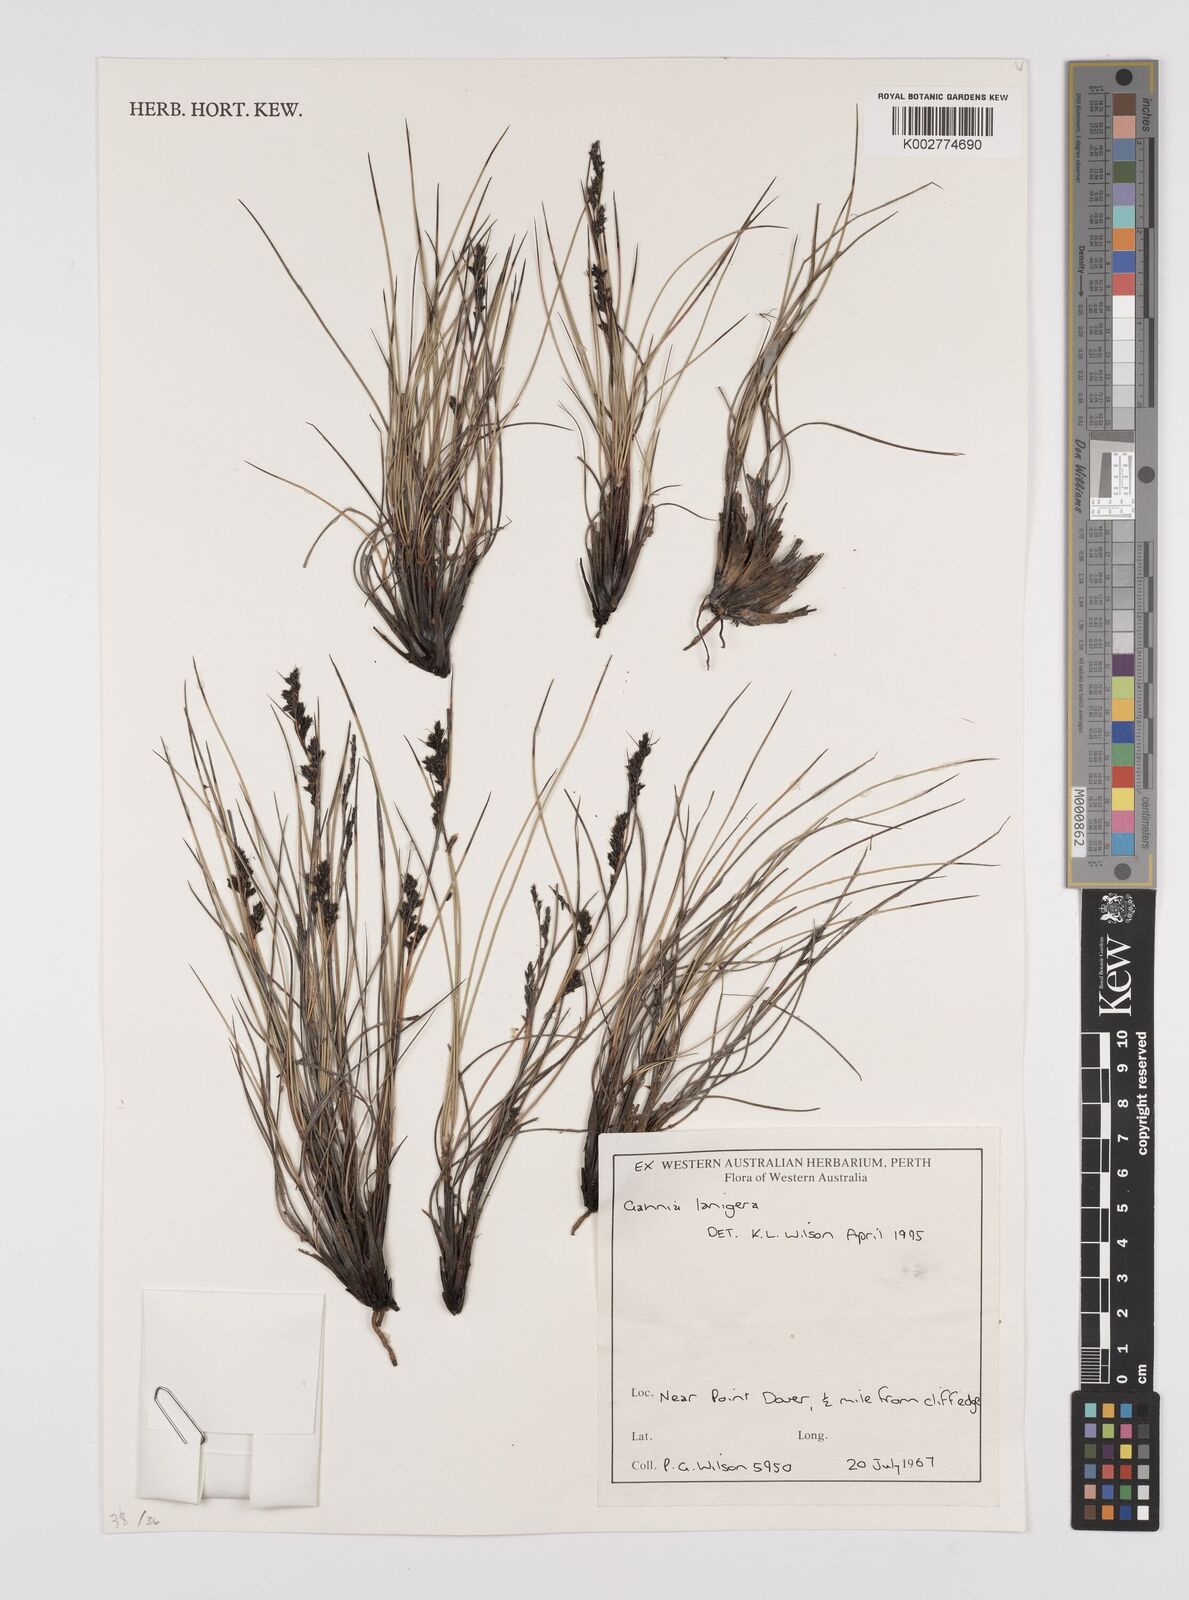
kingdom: Plantae
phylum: Tracheophyta
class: Liliopsida
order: Poales
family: Cyperaceae
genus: Gahnia
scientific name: Gahnia lanigera
